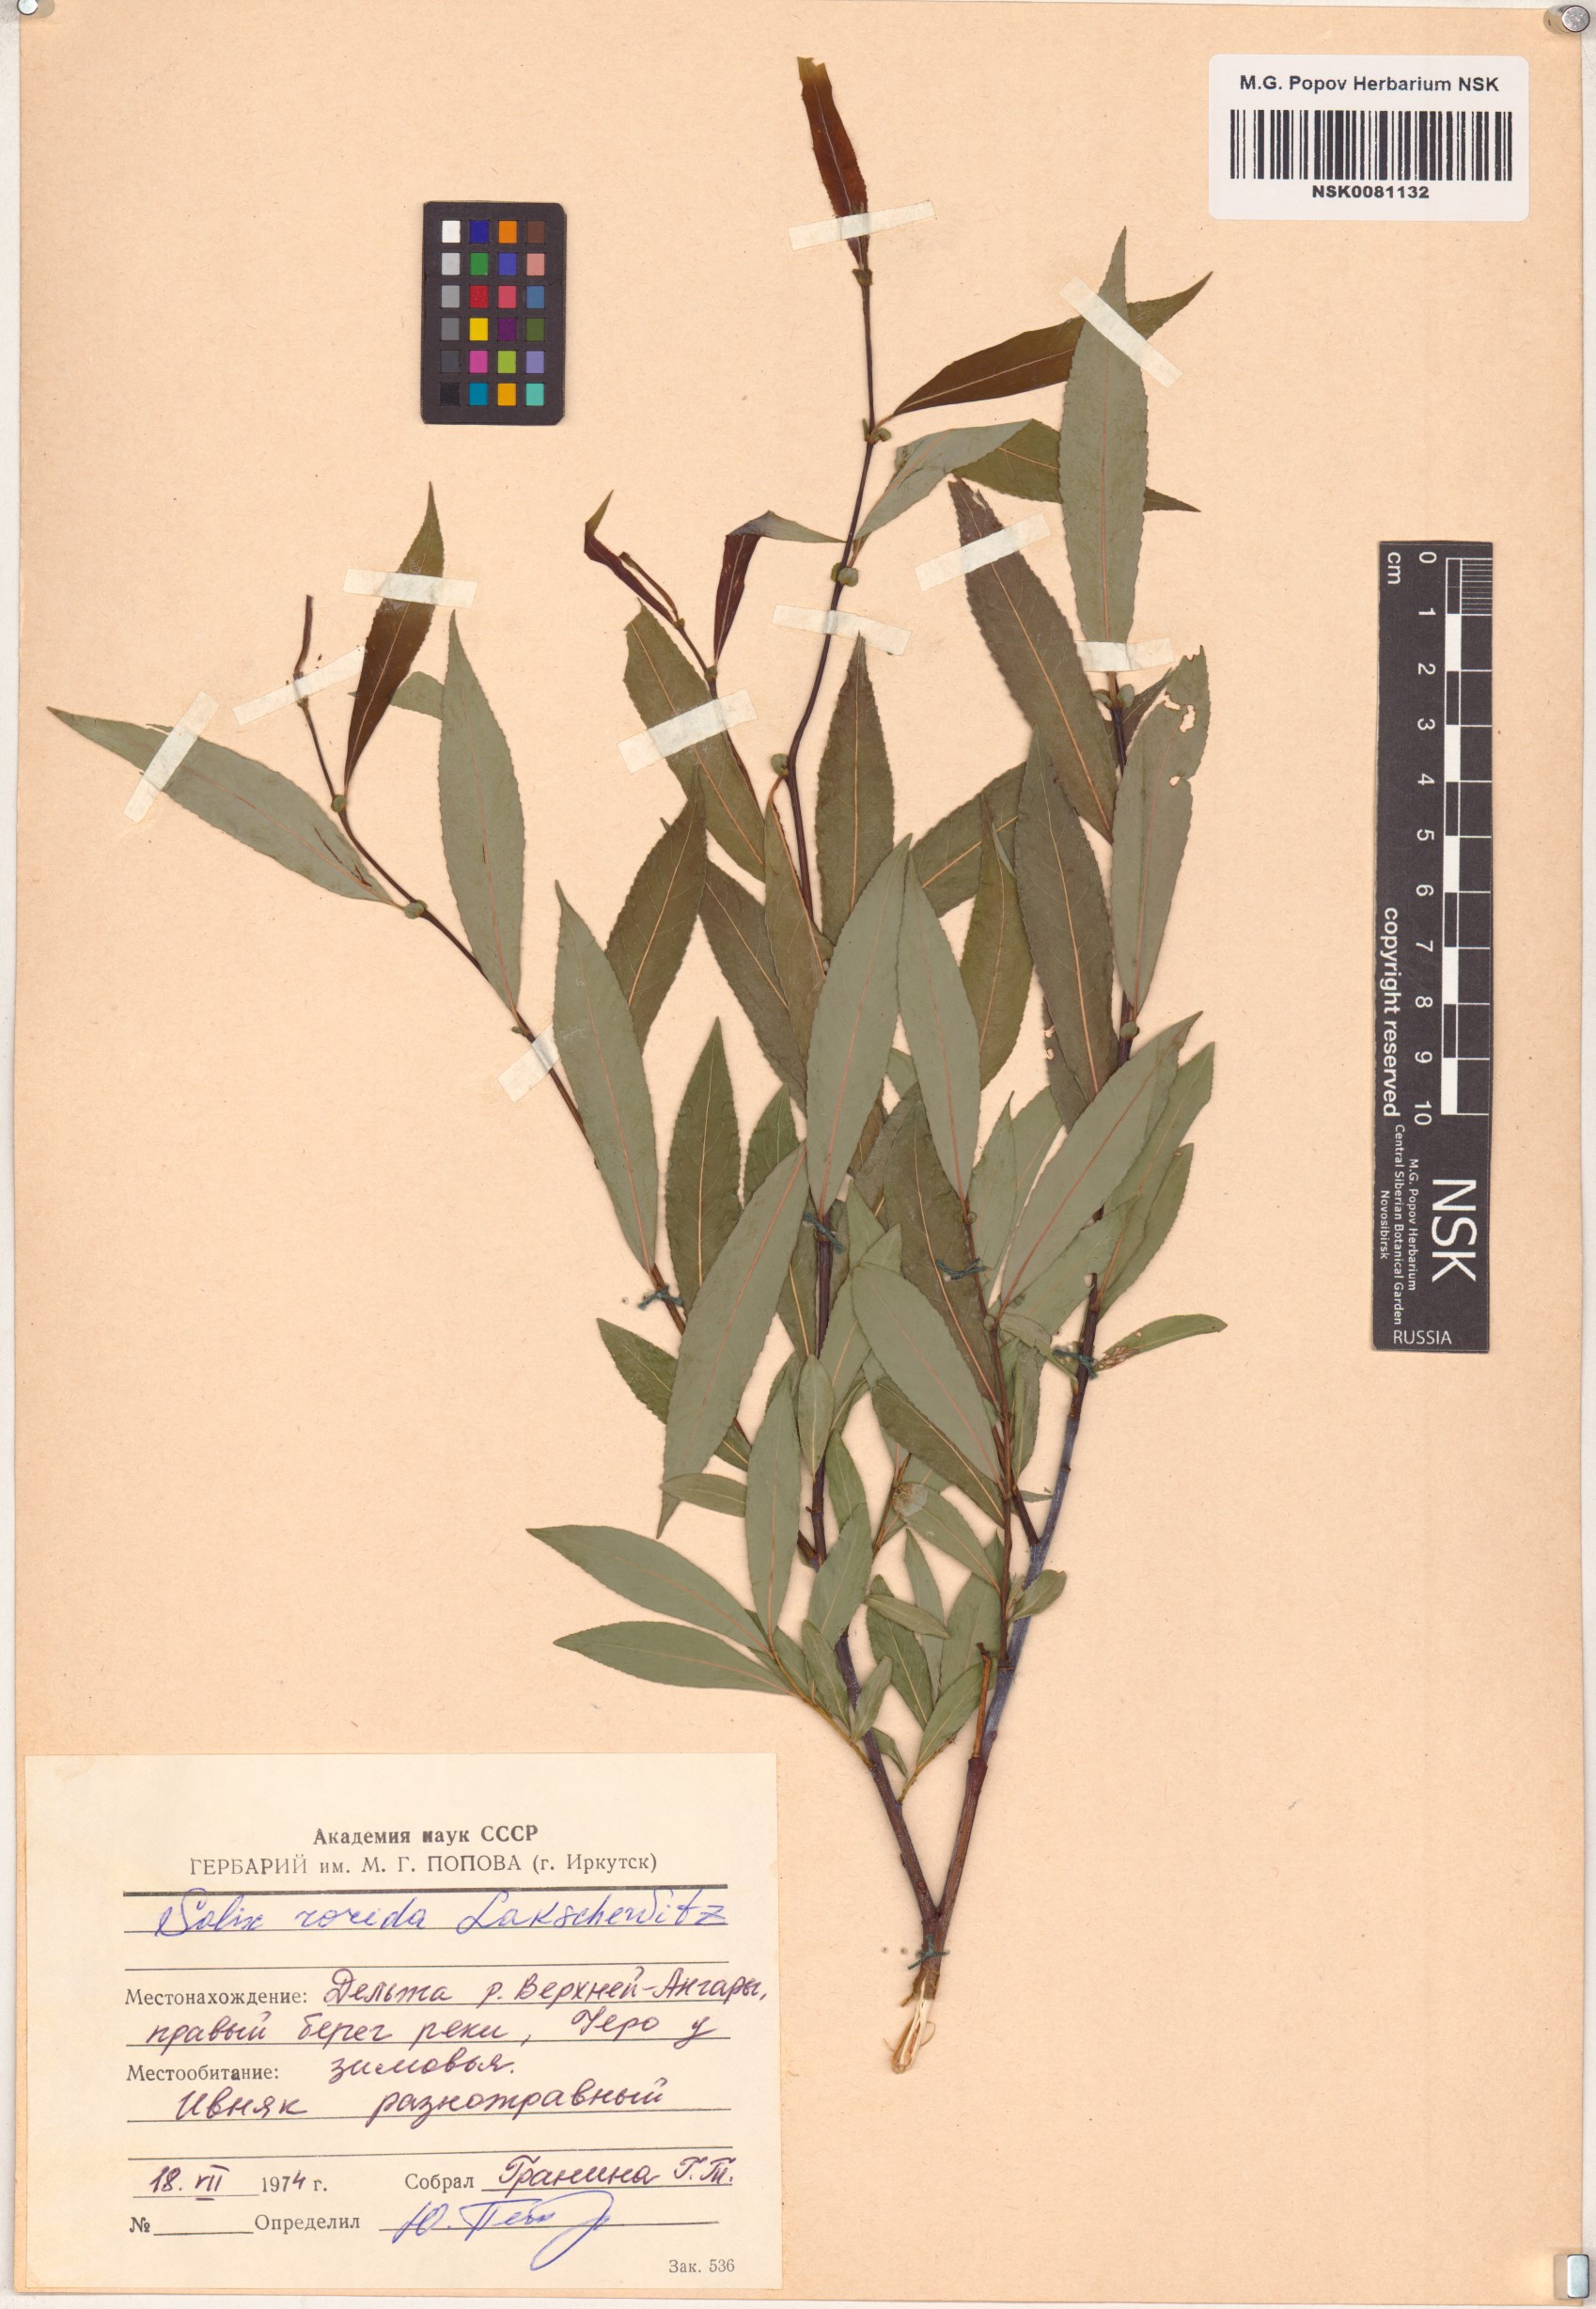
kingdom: Plantae
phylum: Tracheophyta
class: Magnoliopsida
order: Malpighiales
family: Salicaceae
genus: Salix
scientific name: Salix rorida
